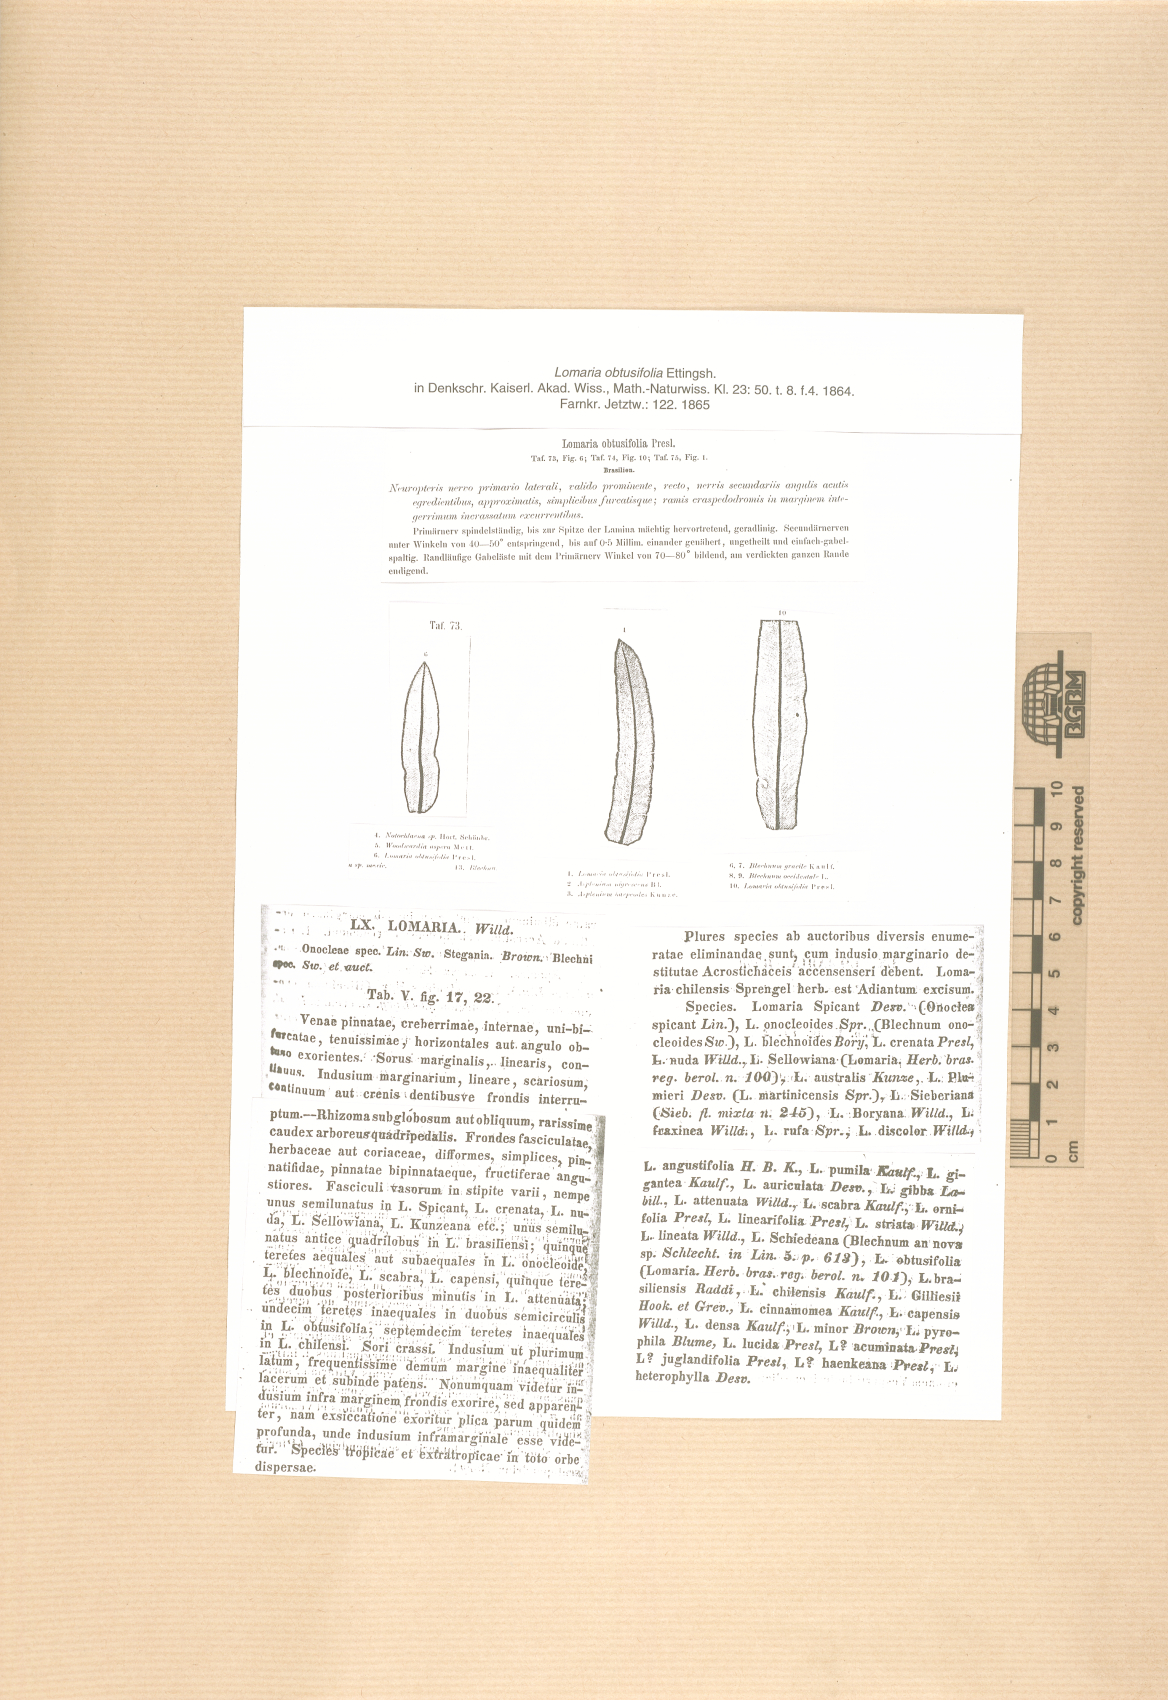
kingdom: Plantae
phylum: Tracheophyta
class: Polypodiopsida
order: Polypodiales
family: Blechnaceae
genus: Lomariocycas
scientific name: Lomariocycas obtusifolia
